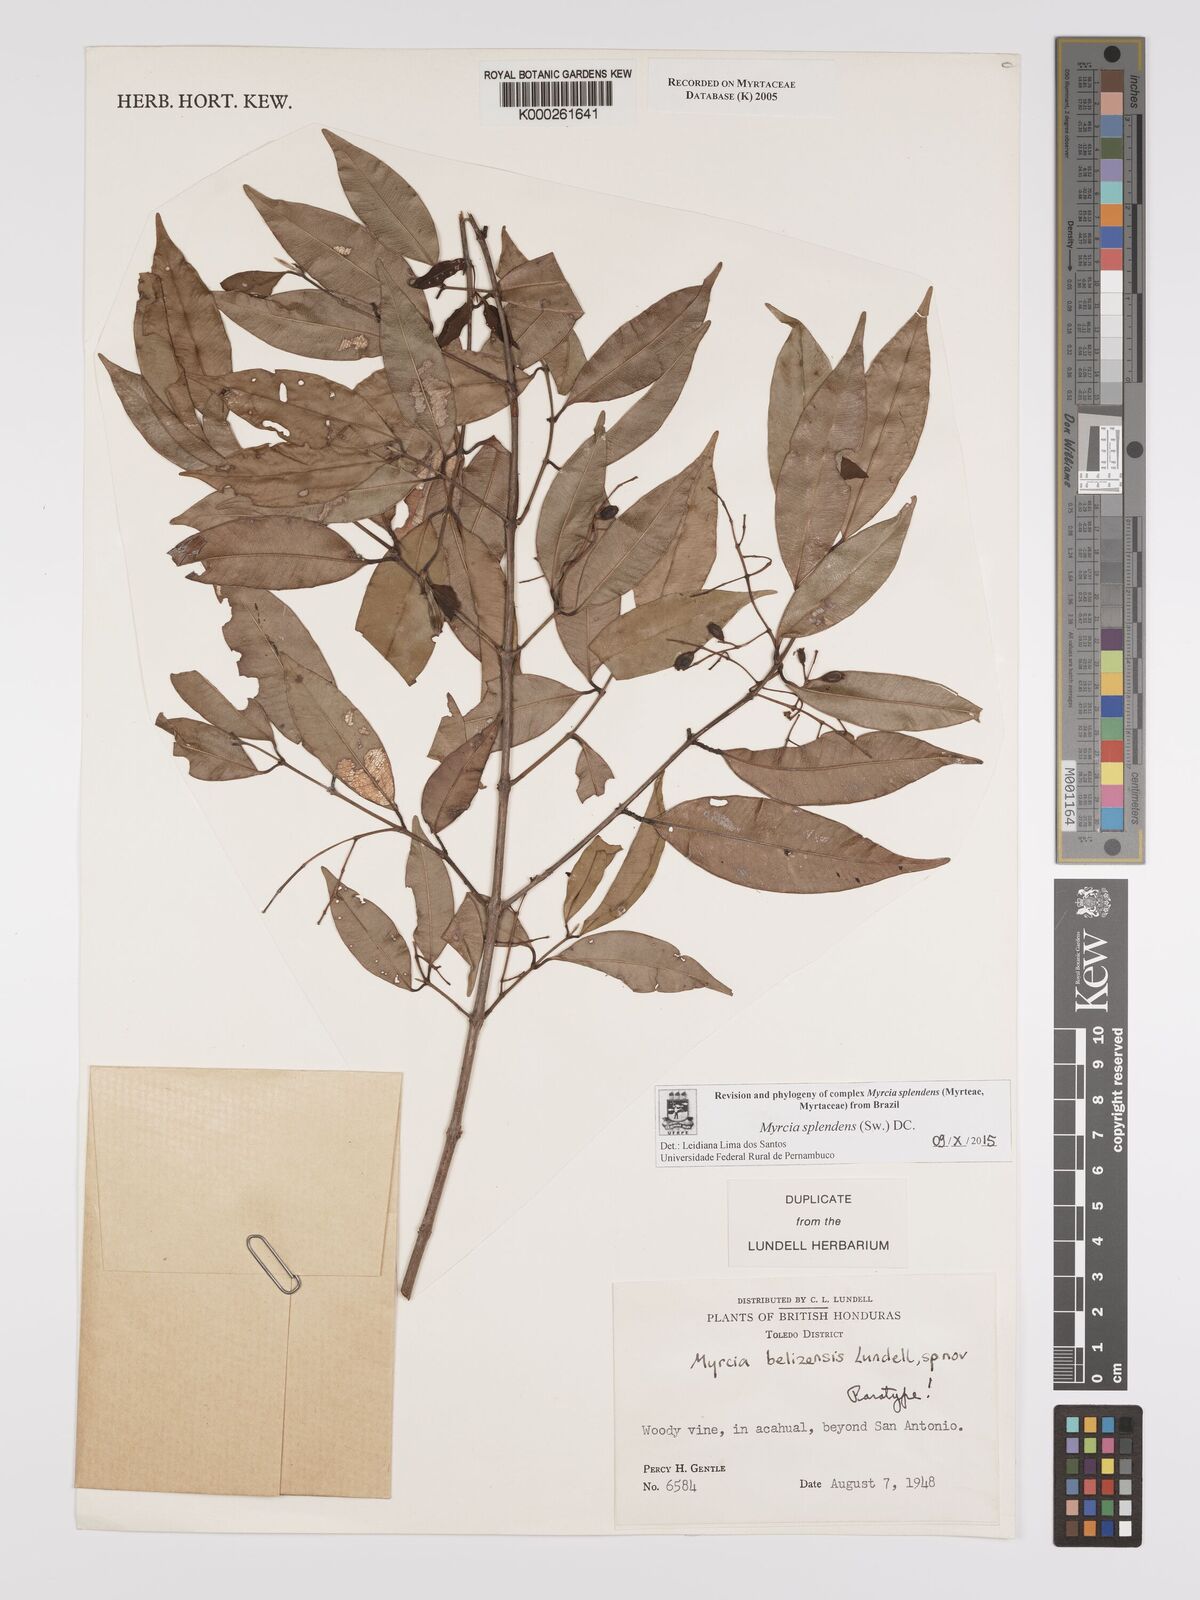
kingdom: Plantae
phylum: Tracheophyta
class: Magnoliopsida
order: Myrtales
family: Myrtaceae
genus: Myrcia
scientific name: Myrcia splendens
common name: Surinam cherry
